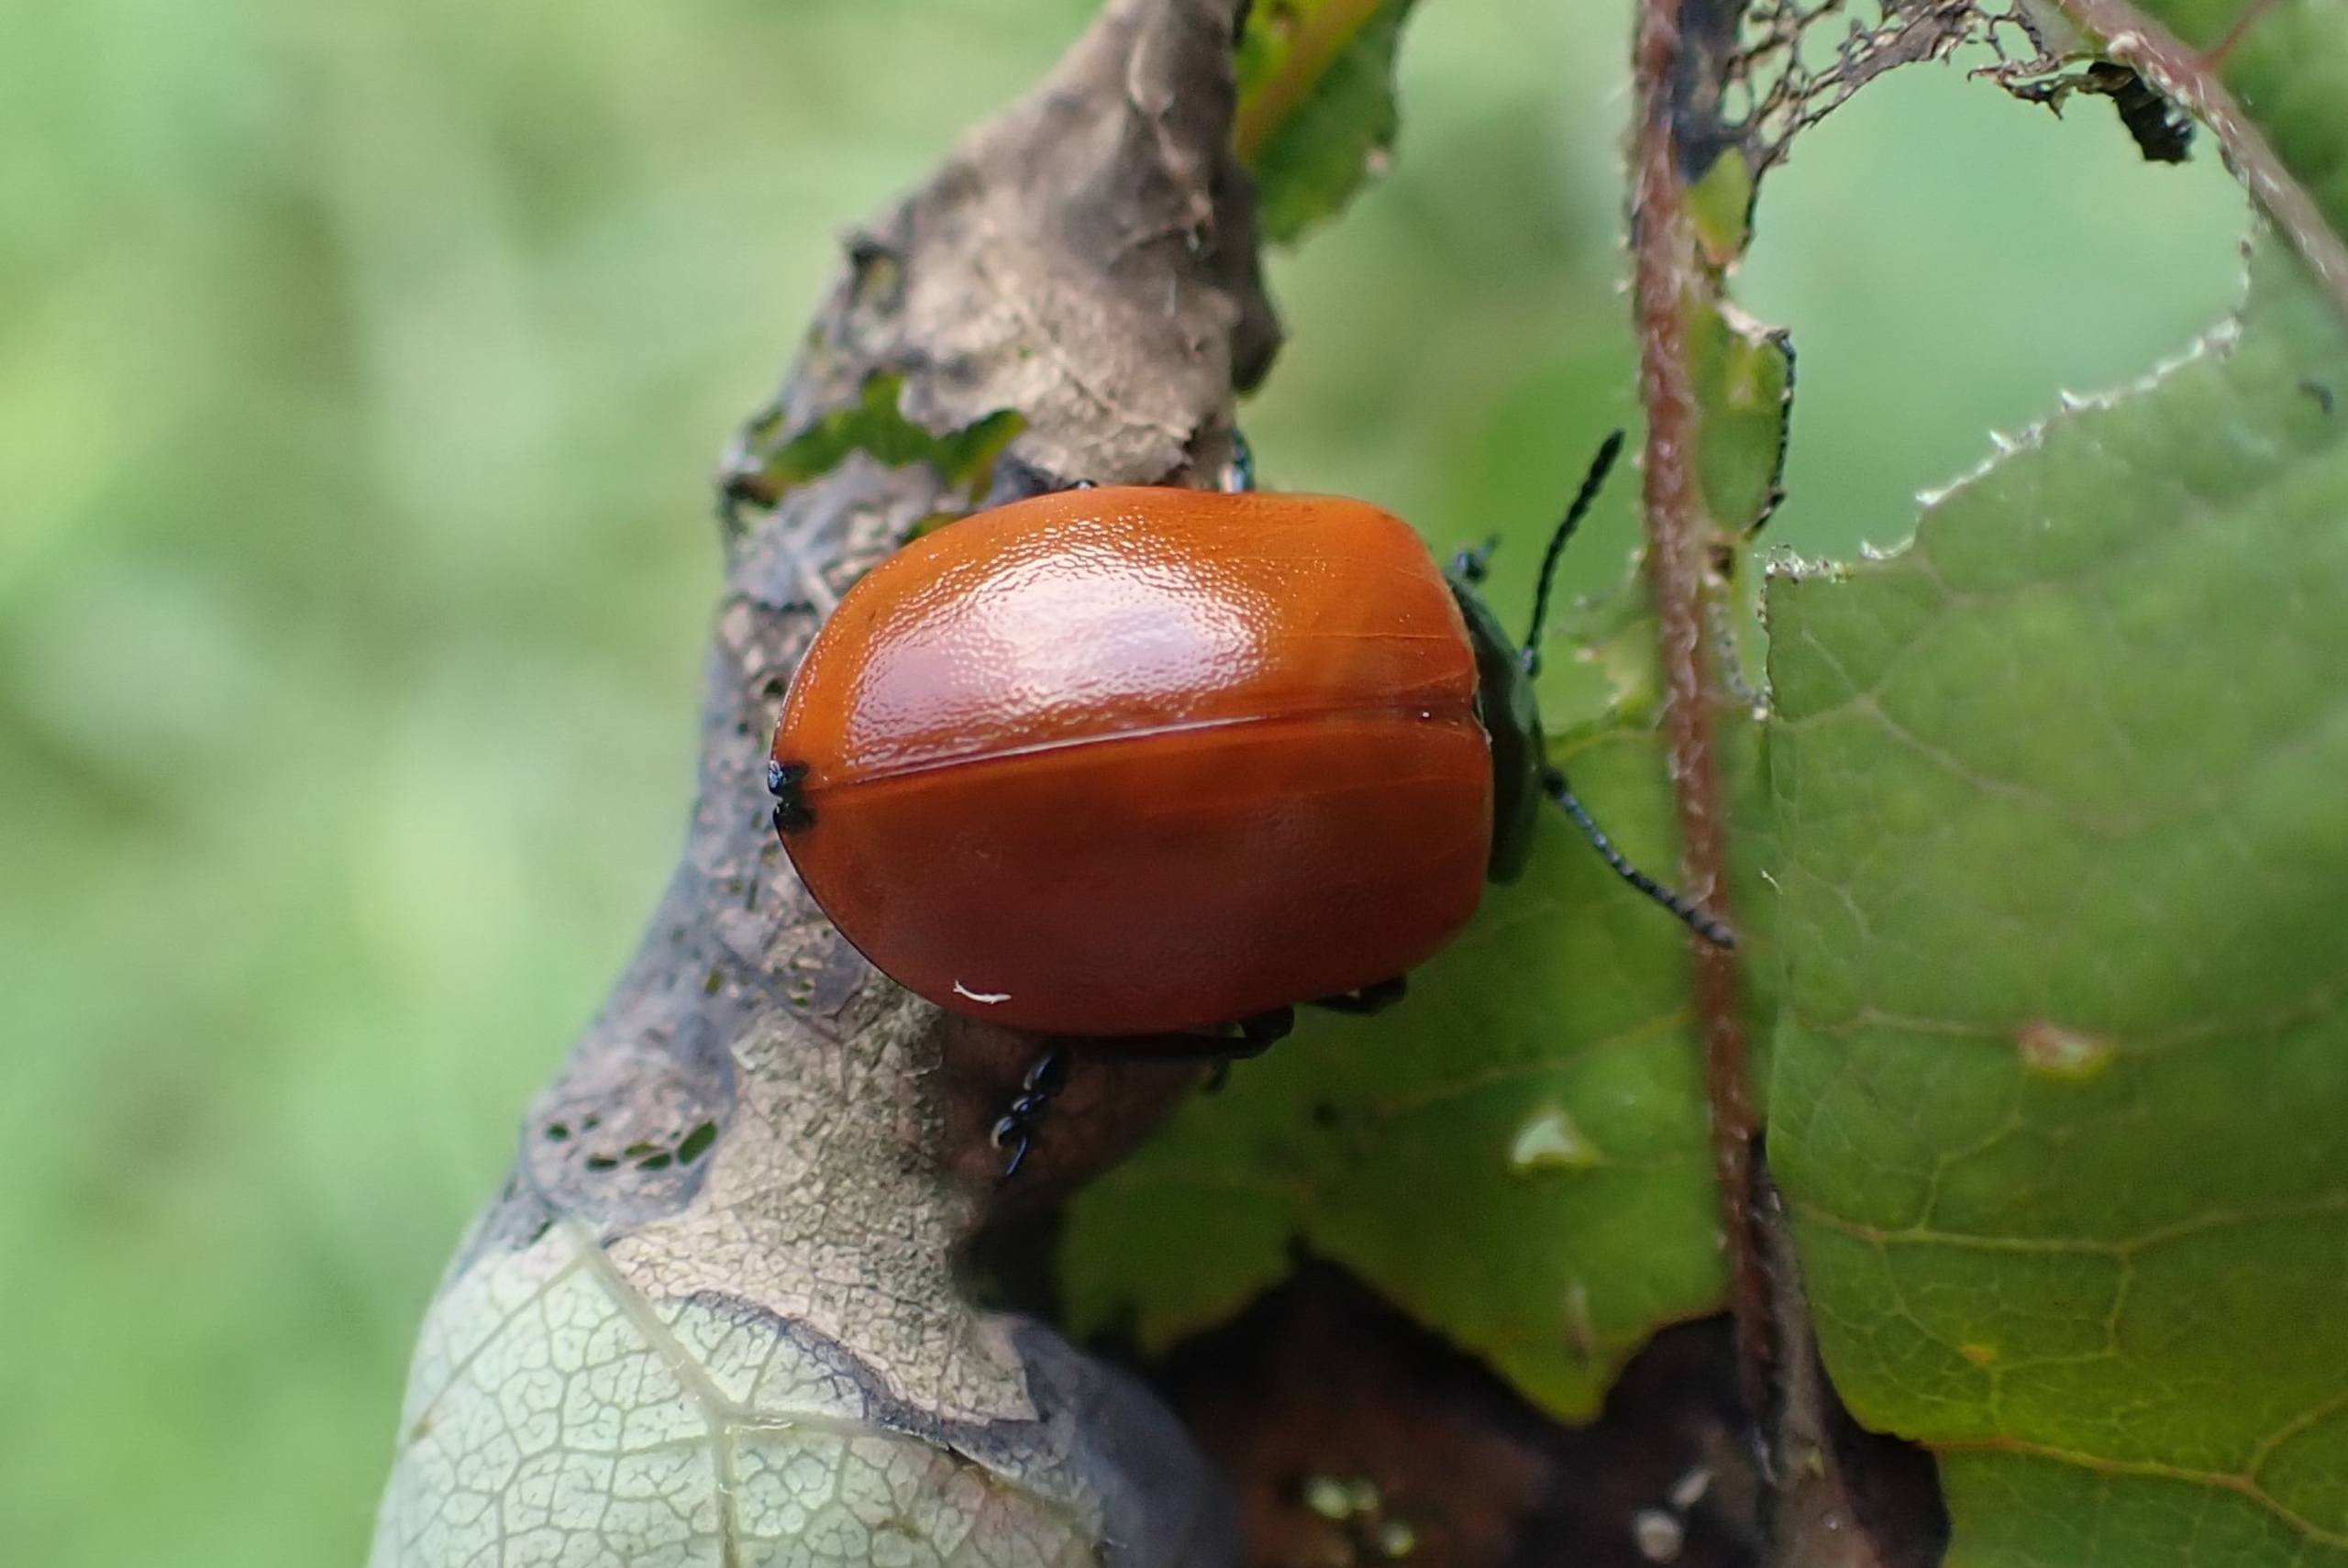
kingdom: Animalia
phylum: Arthropoda
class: Insecta
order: Coleoptera
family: Chrysomelidae
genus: Chrysomela
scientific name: Chrysomela populi
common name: Poppelbladbille
